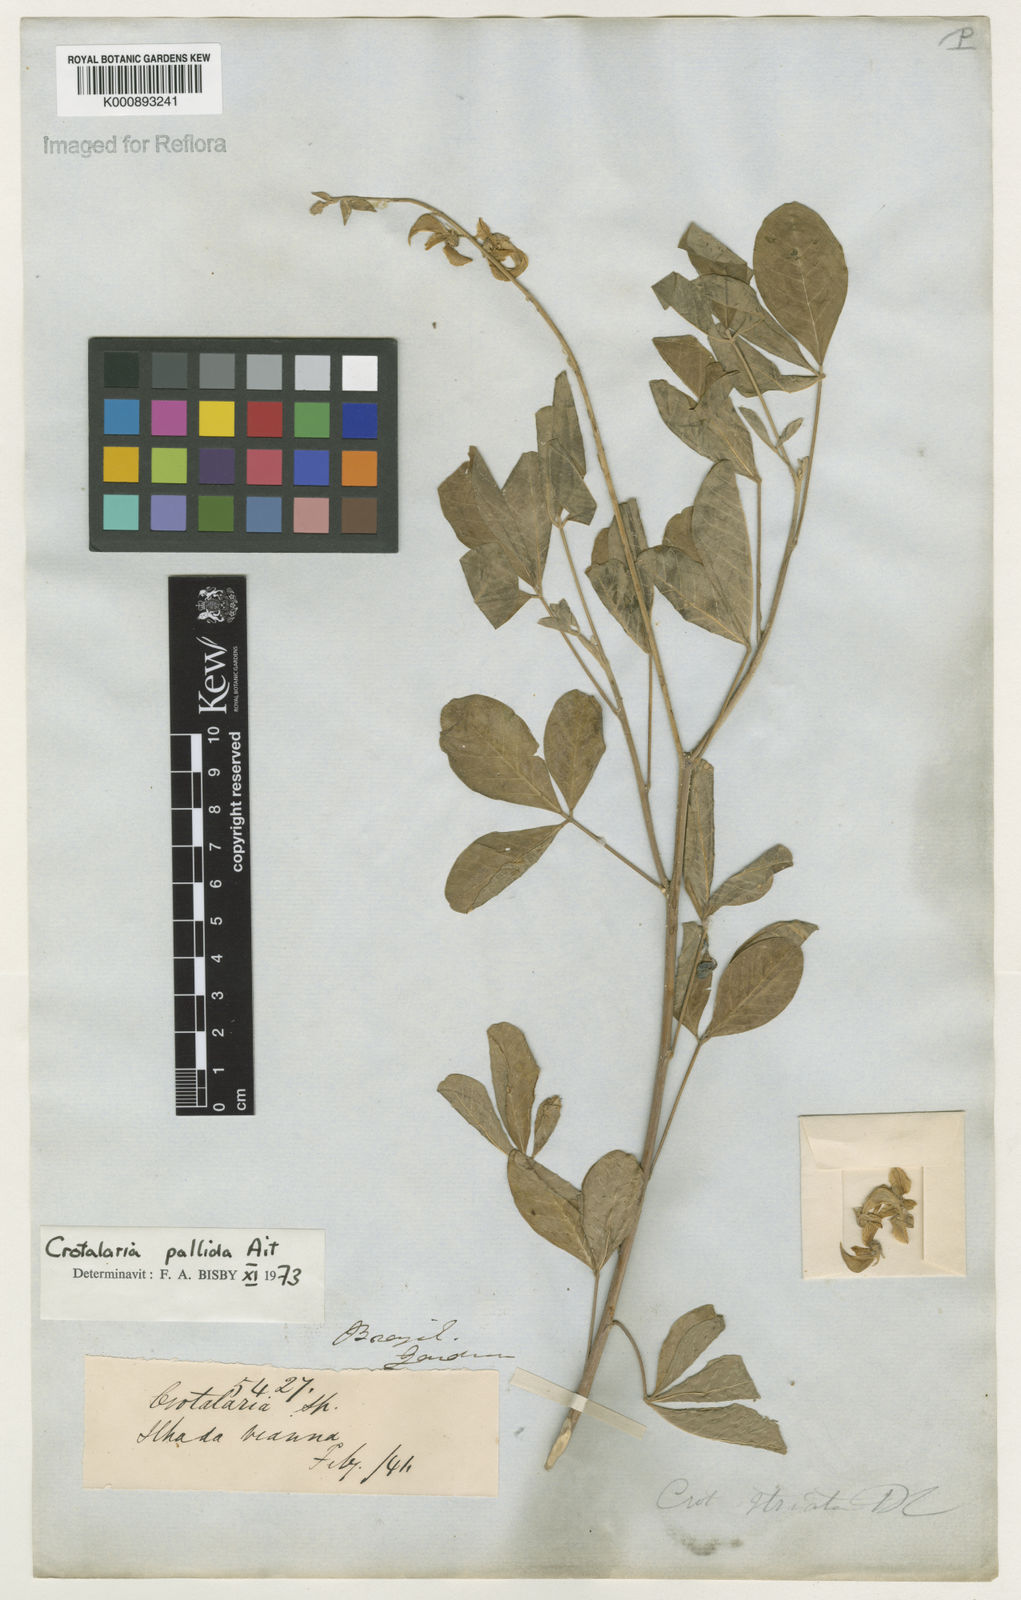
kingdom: Plantae
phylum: Tracheophyta
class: Magnoliopsida
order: Fabales
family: Fabaceae
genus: Crotalaria
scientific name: Crotalaria pallida
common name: Smooth rattlebox
